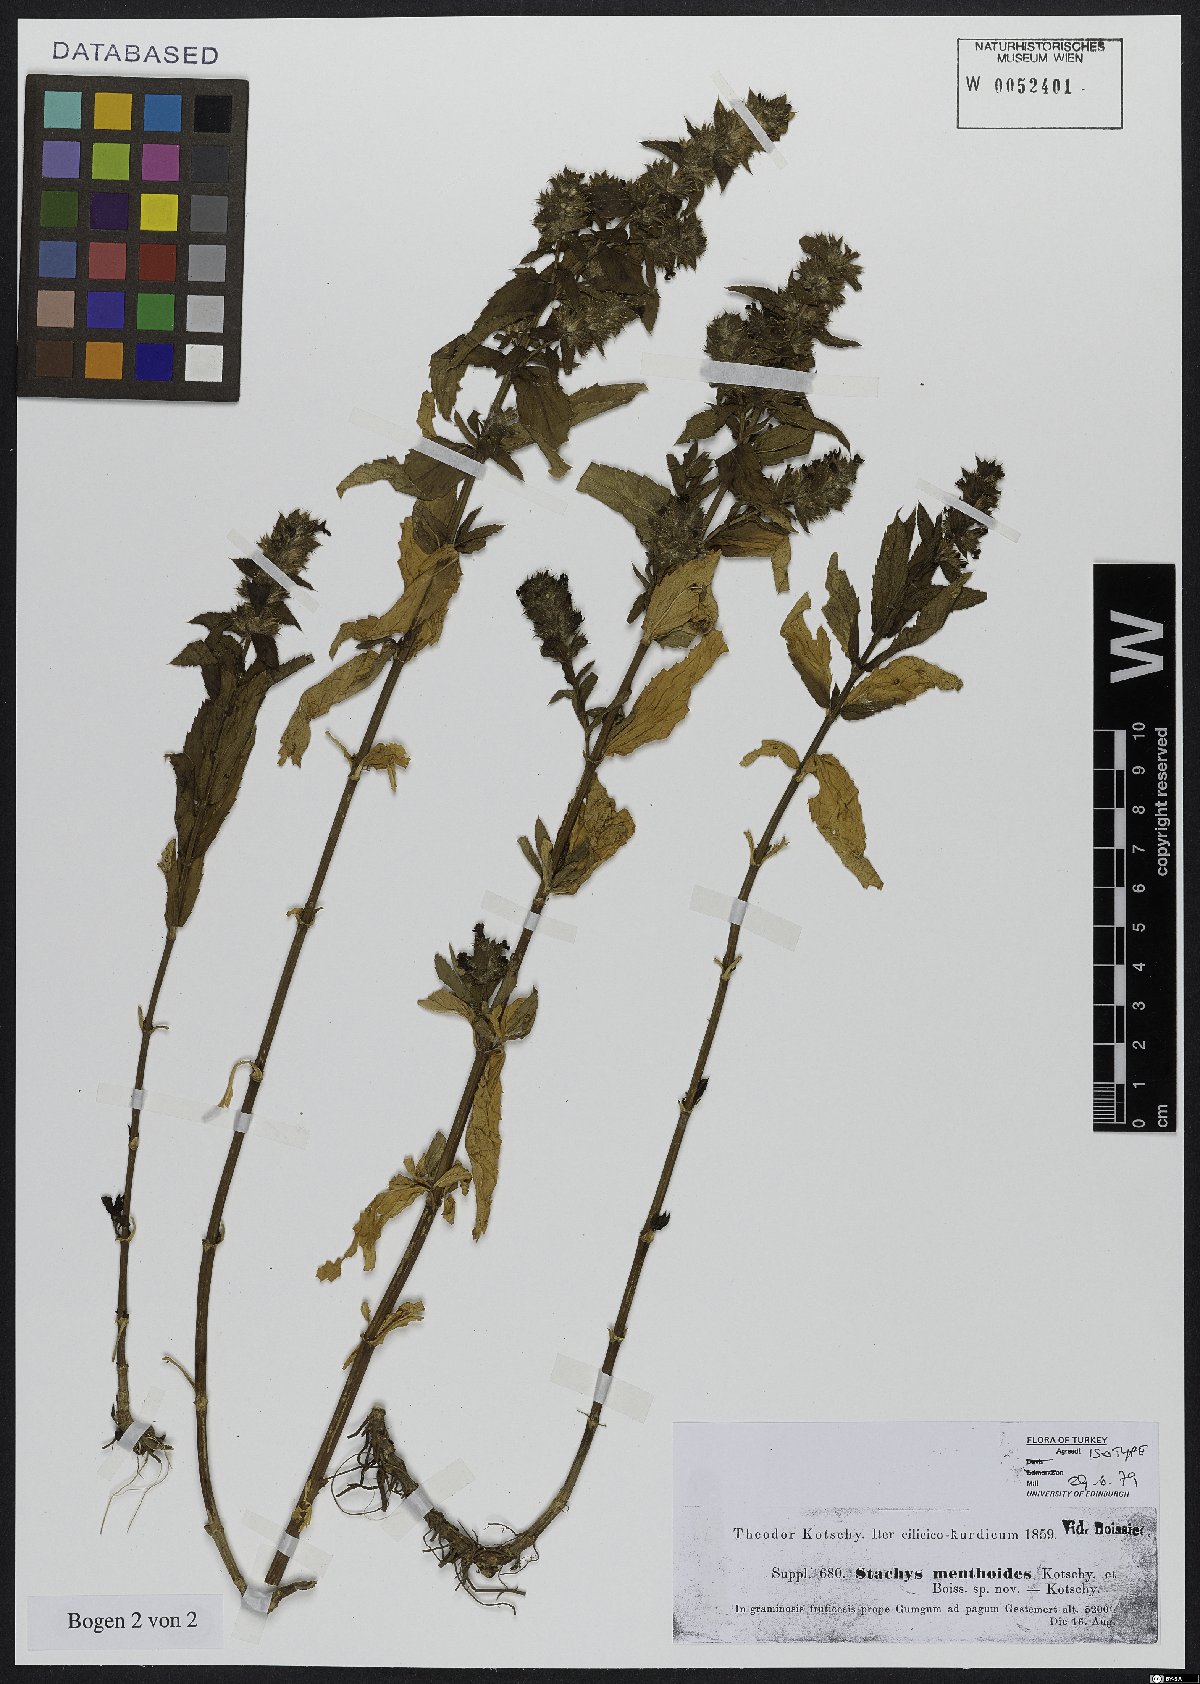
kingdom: Plantae
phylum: Tracheophyta
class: Magnoliopsida
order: Lamiales
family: Lamiaceae
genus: Stachys
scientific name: Stachys menthoides
